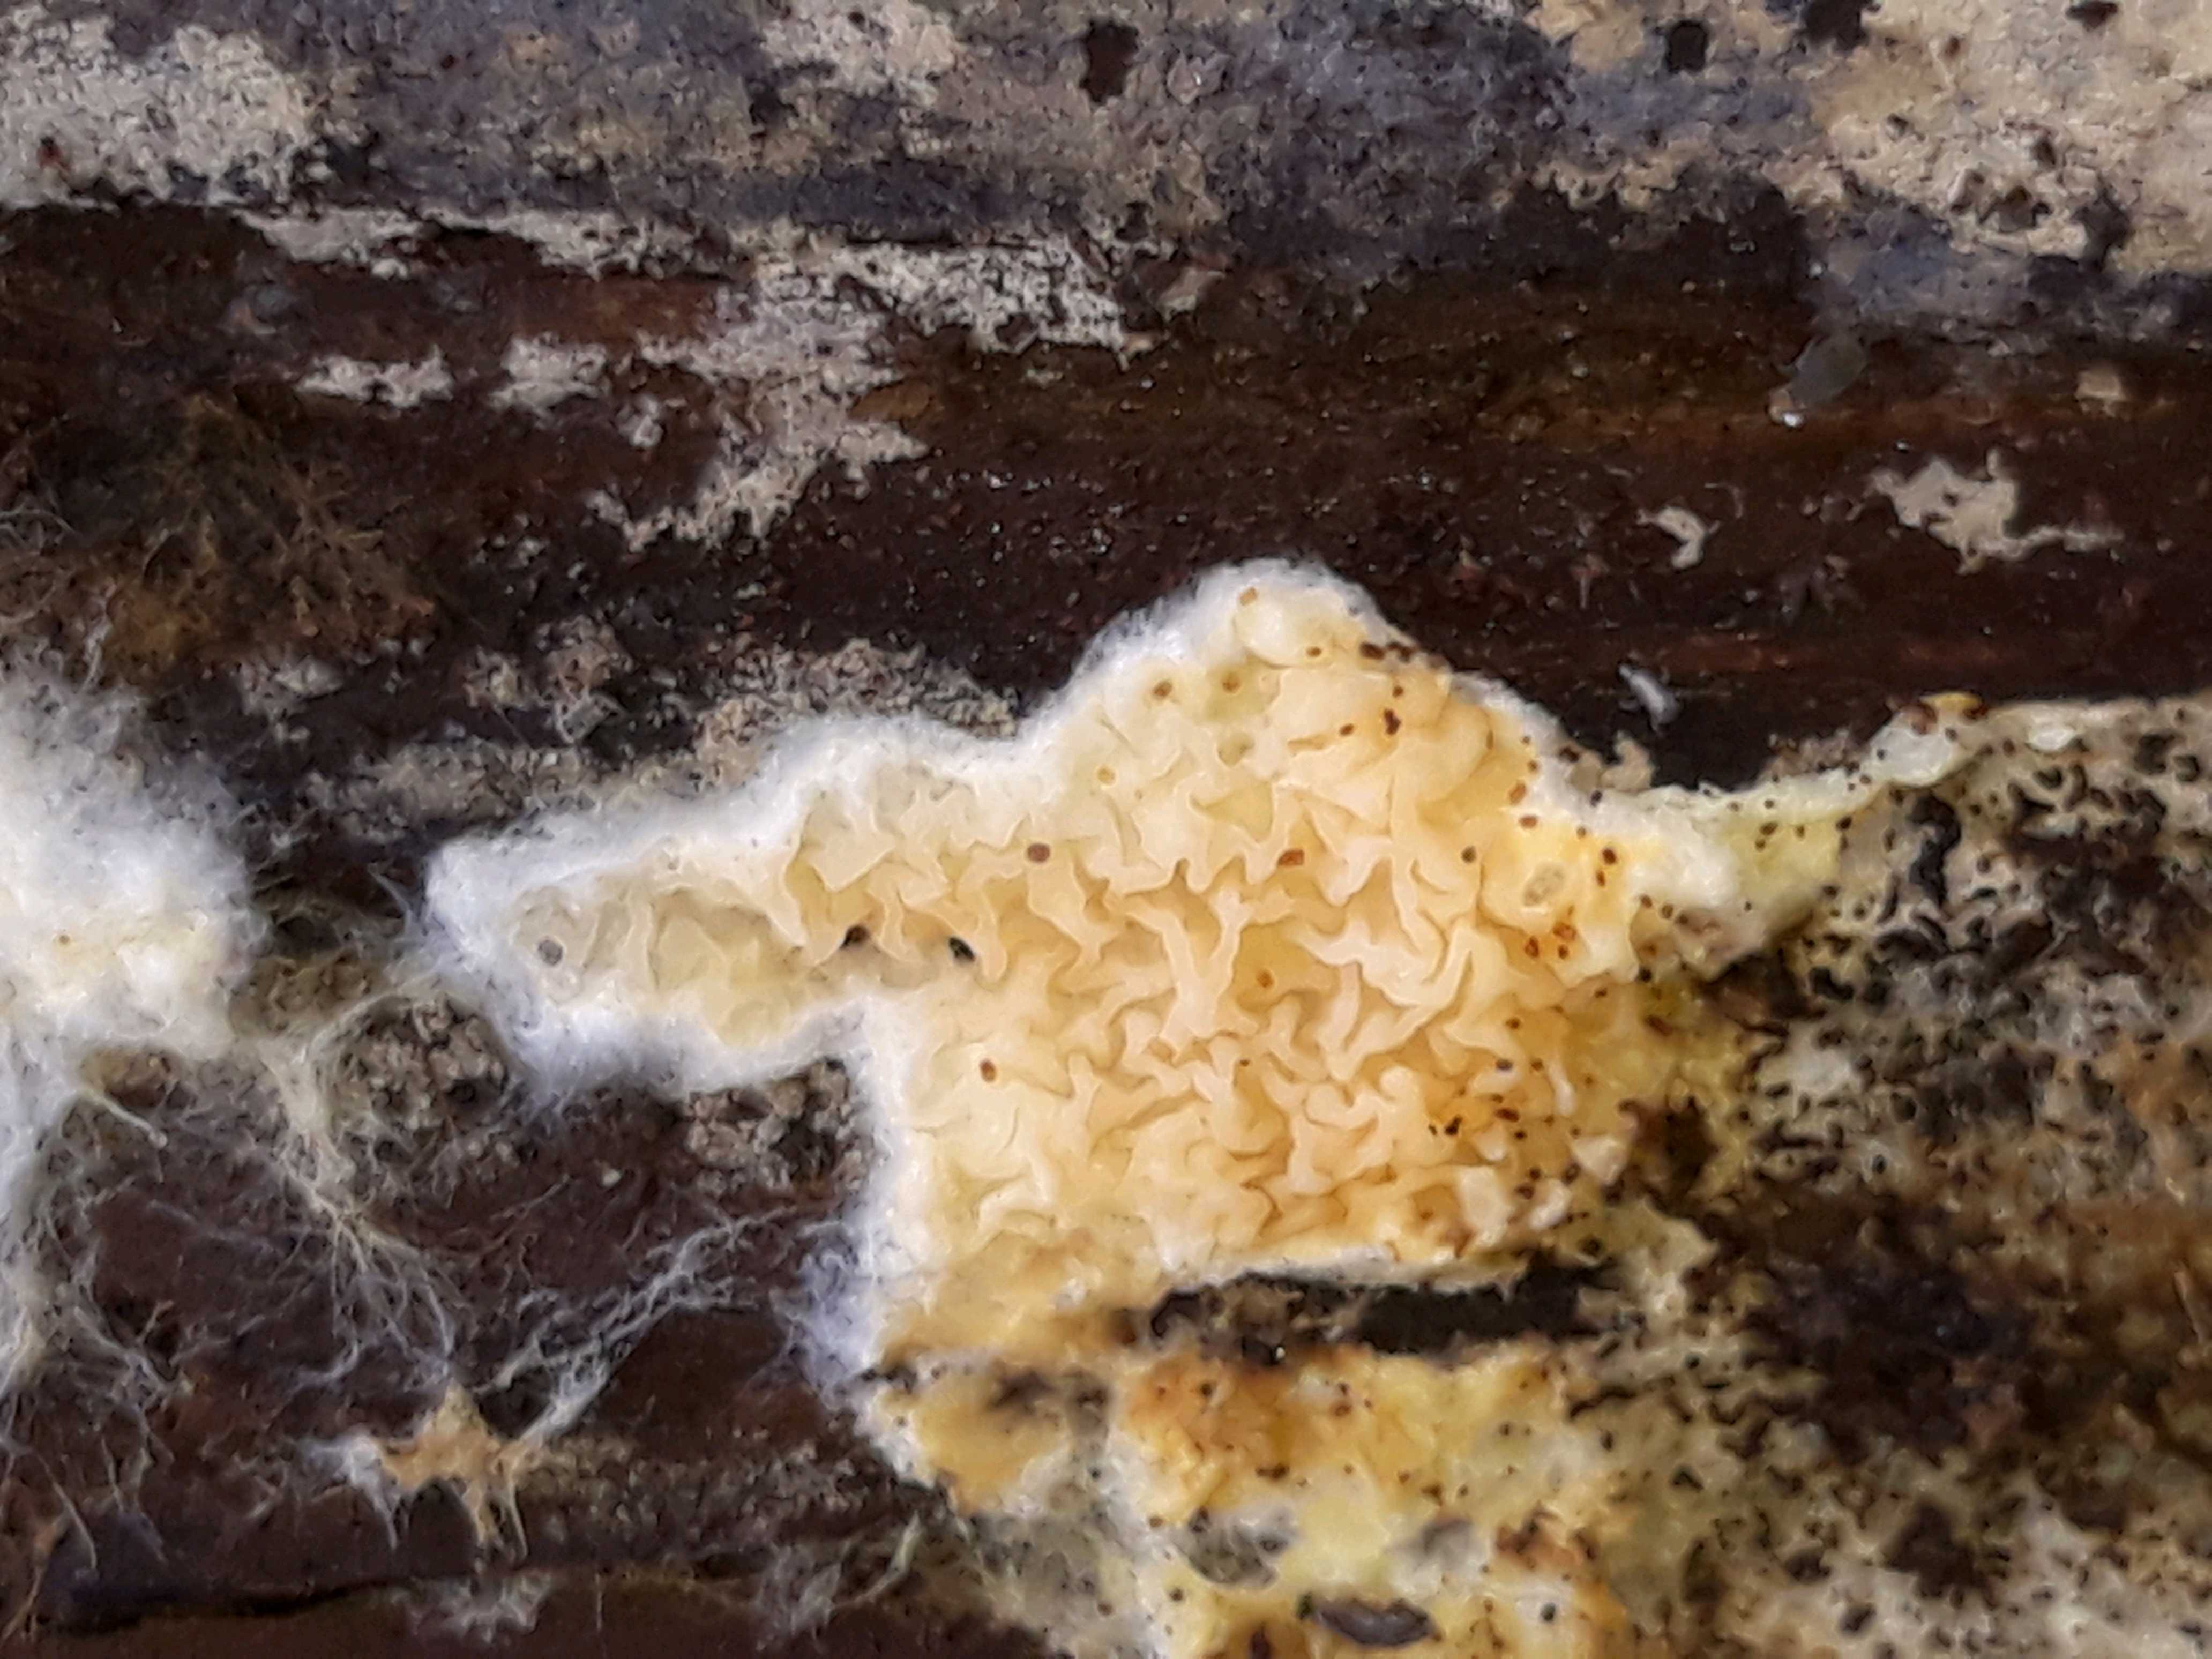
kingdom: Fungi
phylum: Basidiomycota
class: Agaricomycetes
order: Boletales
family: Hygrophoropsidaceae
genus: Leucogyrophana
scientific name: Leucogyrophana
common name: hussvamp
